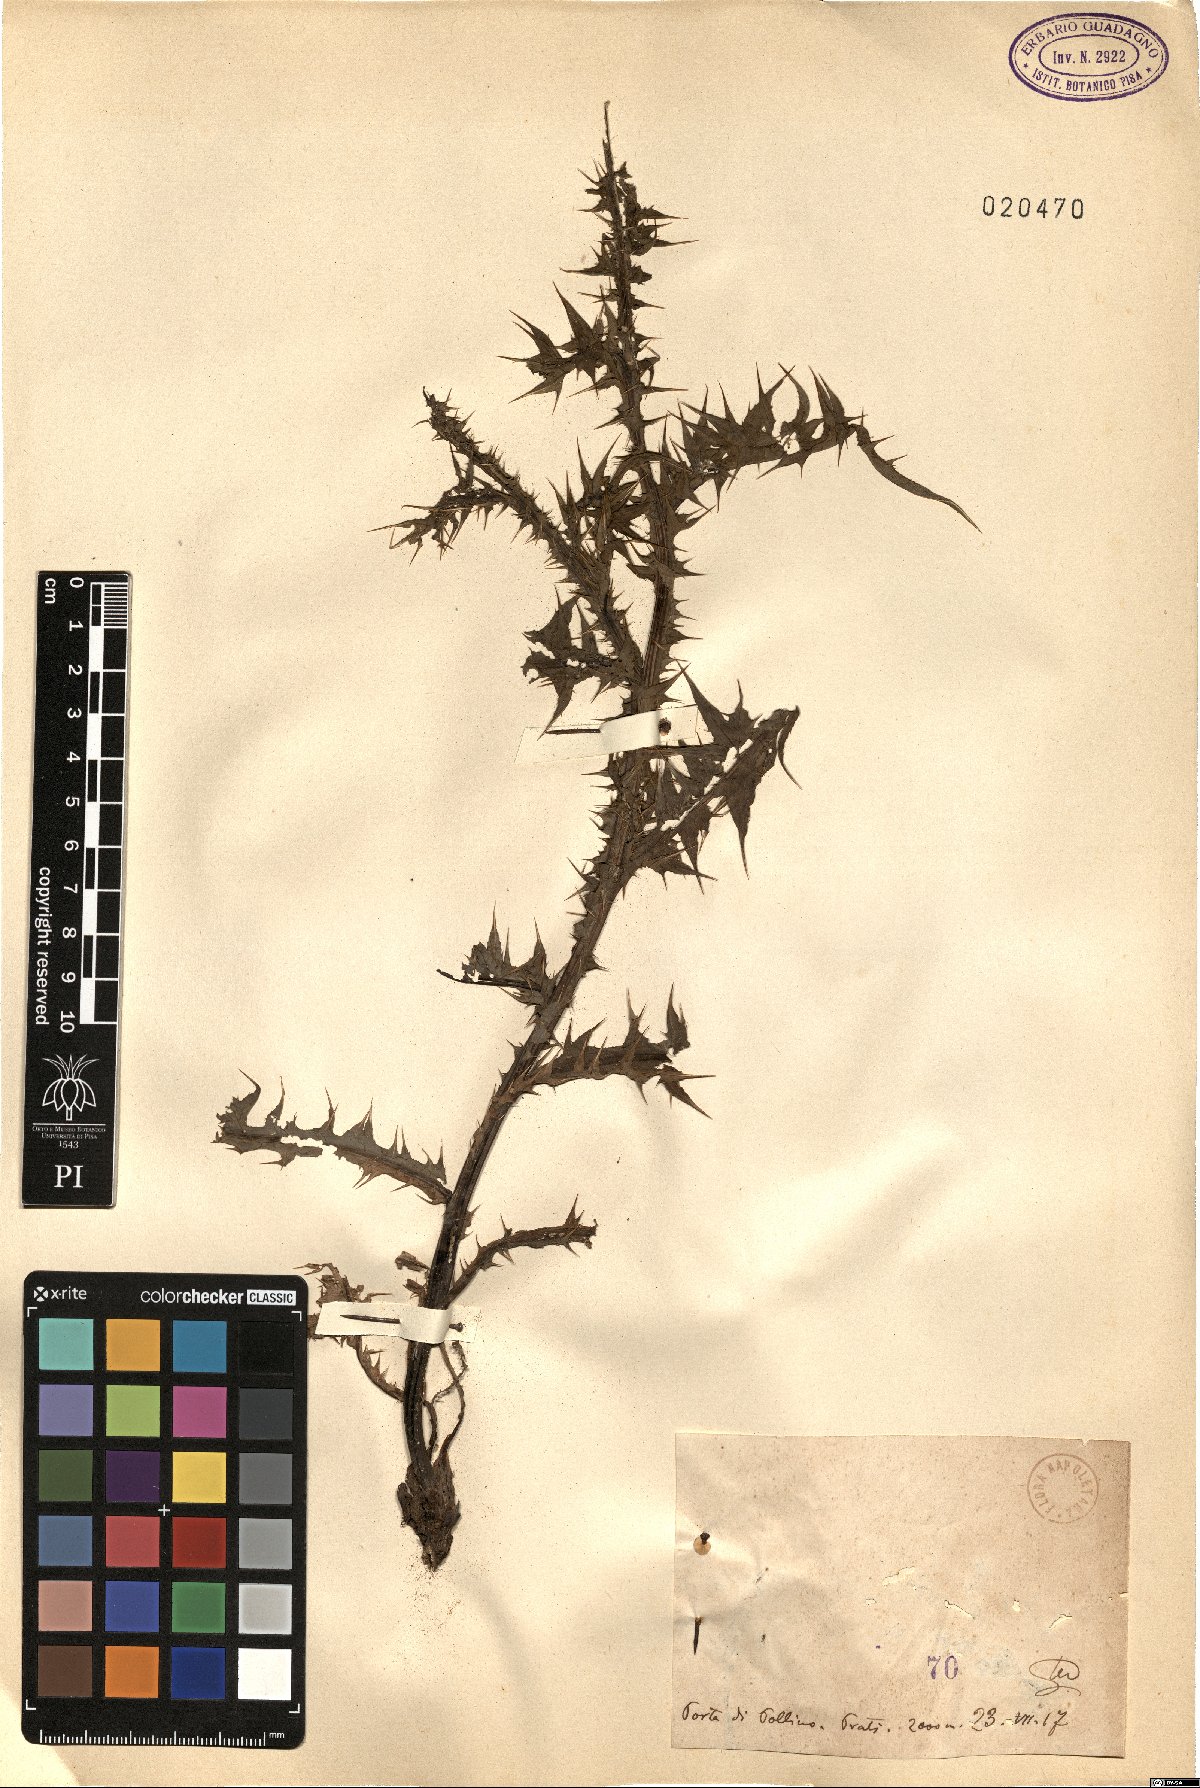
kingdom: Plantae
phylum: Tracheophyta
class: Magnoliopsida
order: Asterales
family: Asteraceae
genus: Carduus
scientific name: Carduus
